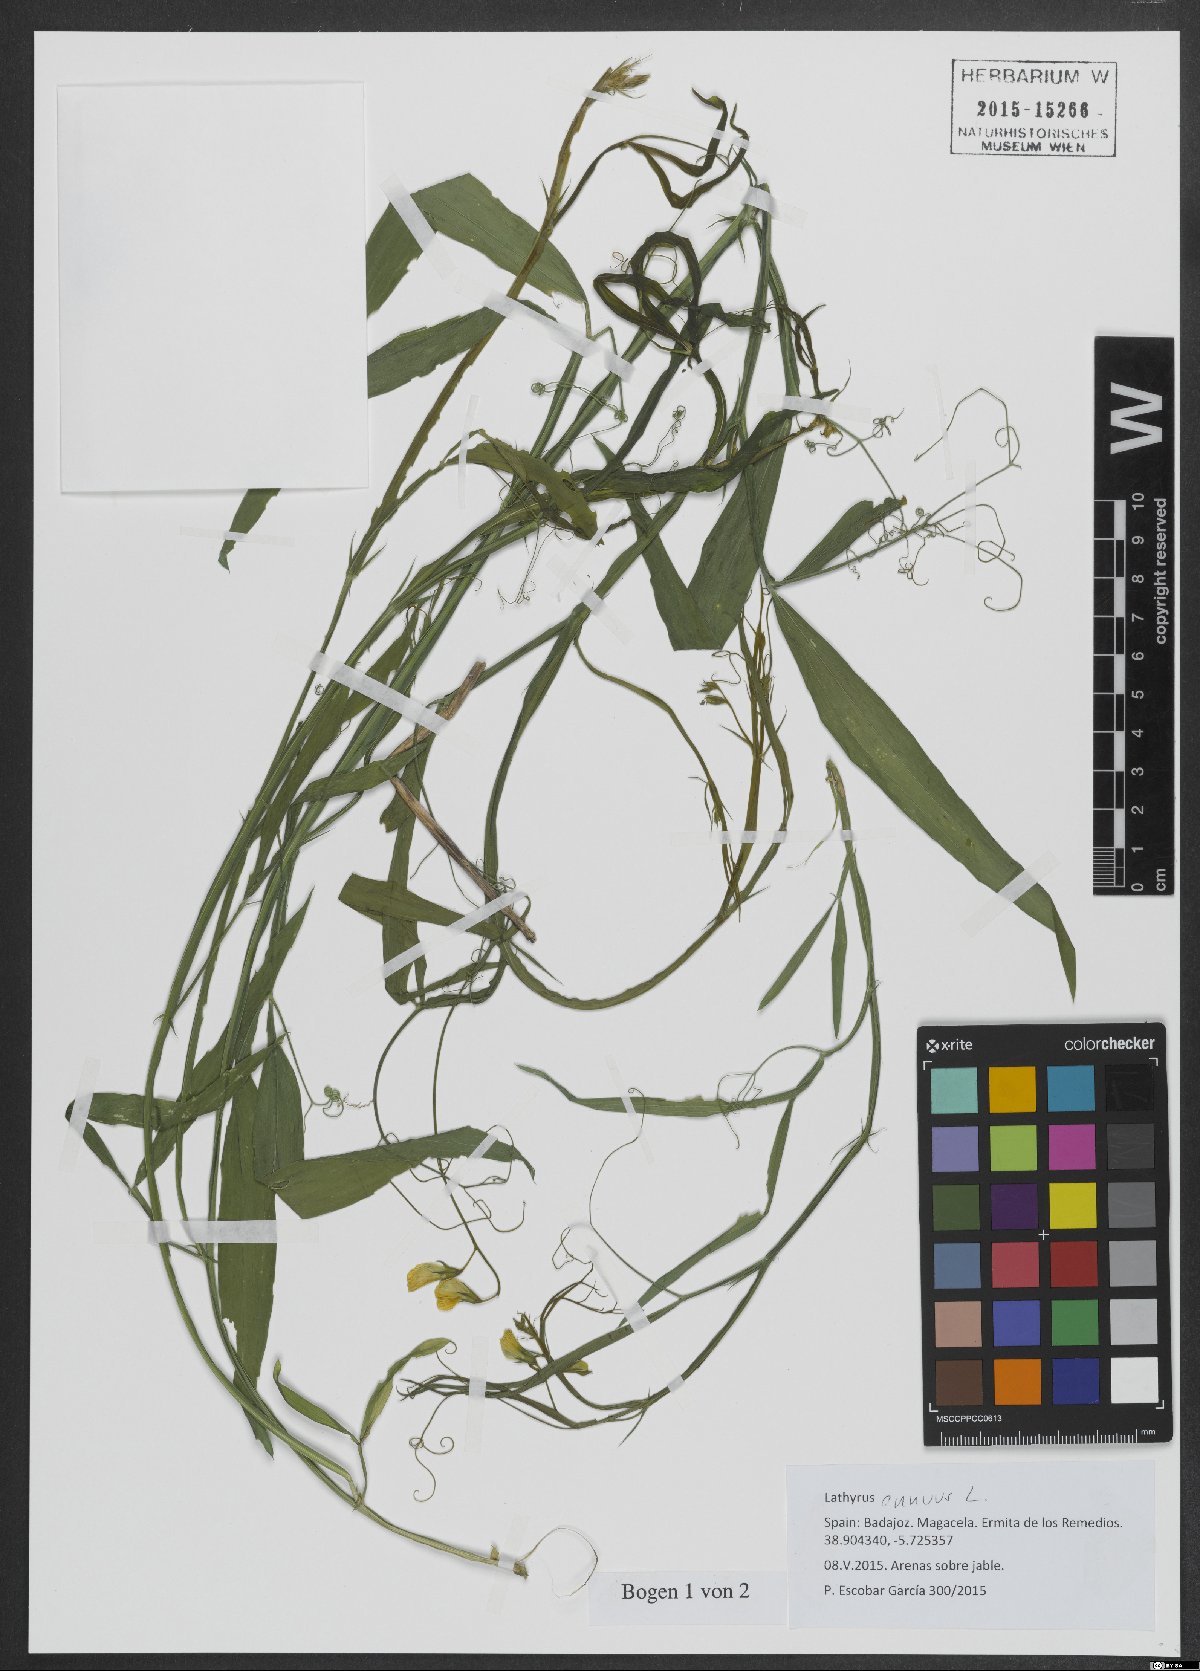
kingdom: Plantae
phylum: Tracheophyta
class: Magnoliopsida
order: Fabales
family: Fabaceae
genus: Lathyrus
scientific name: Lathyrus annuus
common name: Fodder pea
